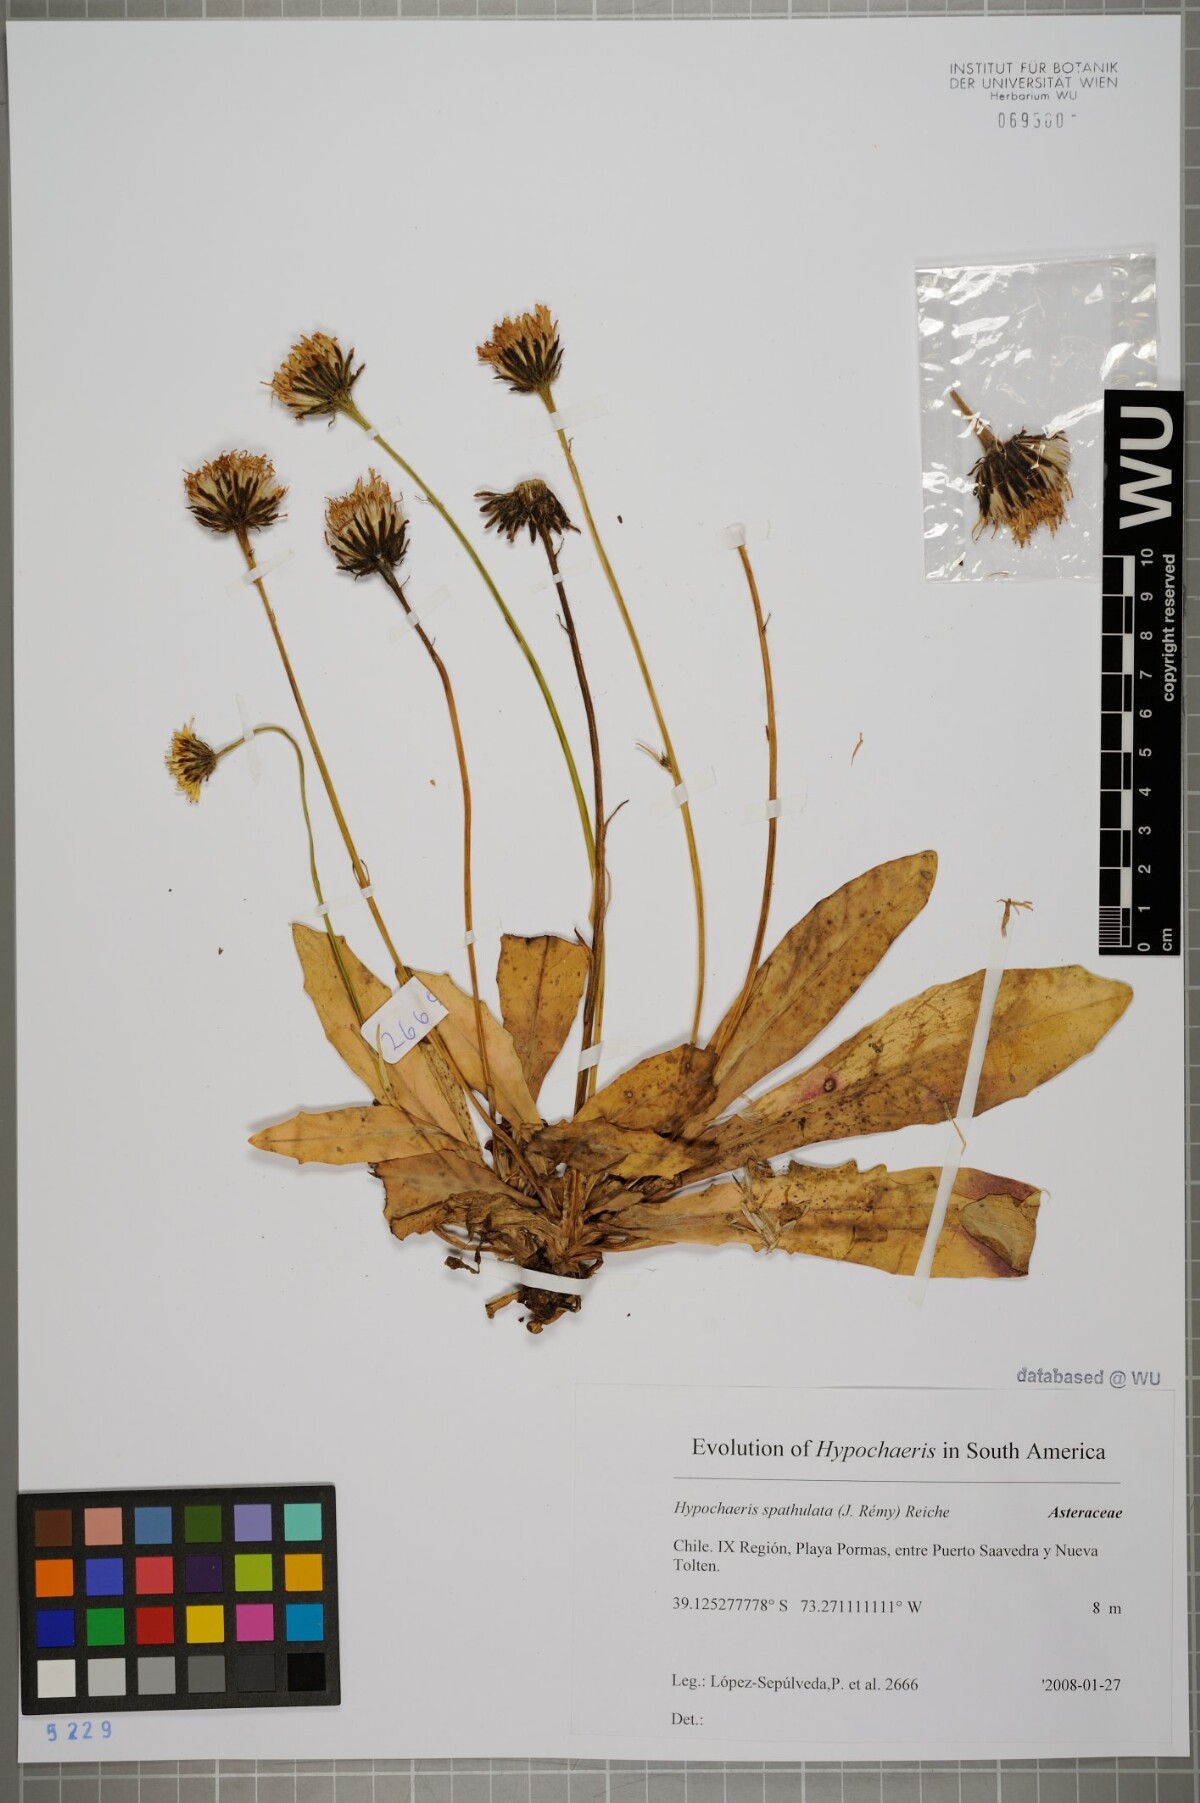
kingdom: Plantae
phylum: Tracheophyta
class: Magnoliopsida
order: Asterales
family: Asteraceae
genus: Hypochaeris
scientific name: Hypochaeris spathulata
